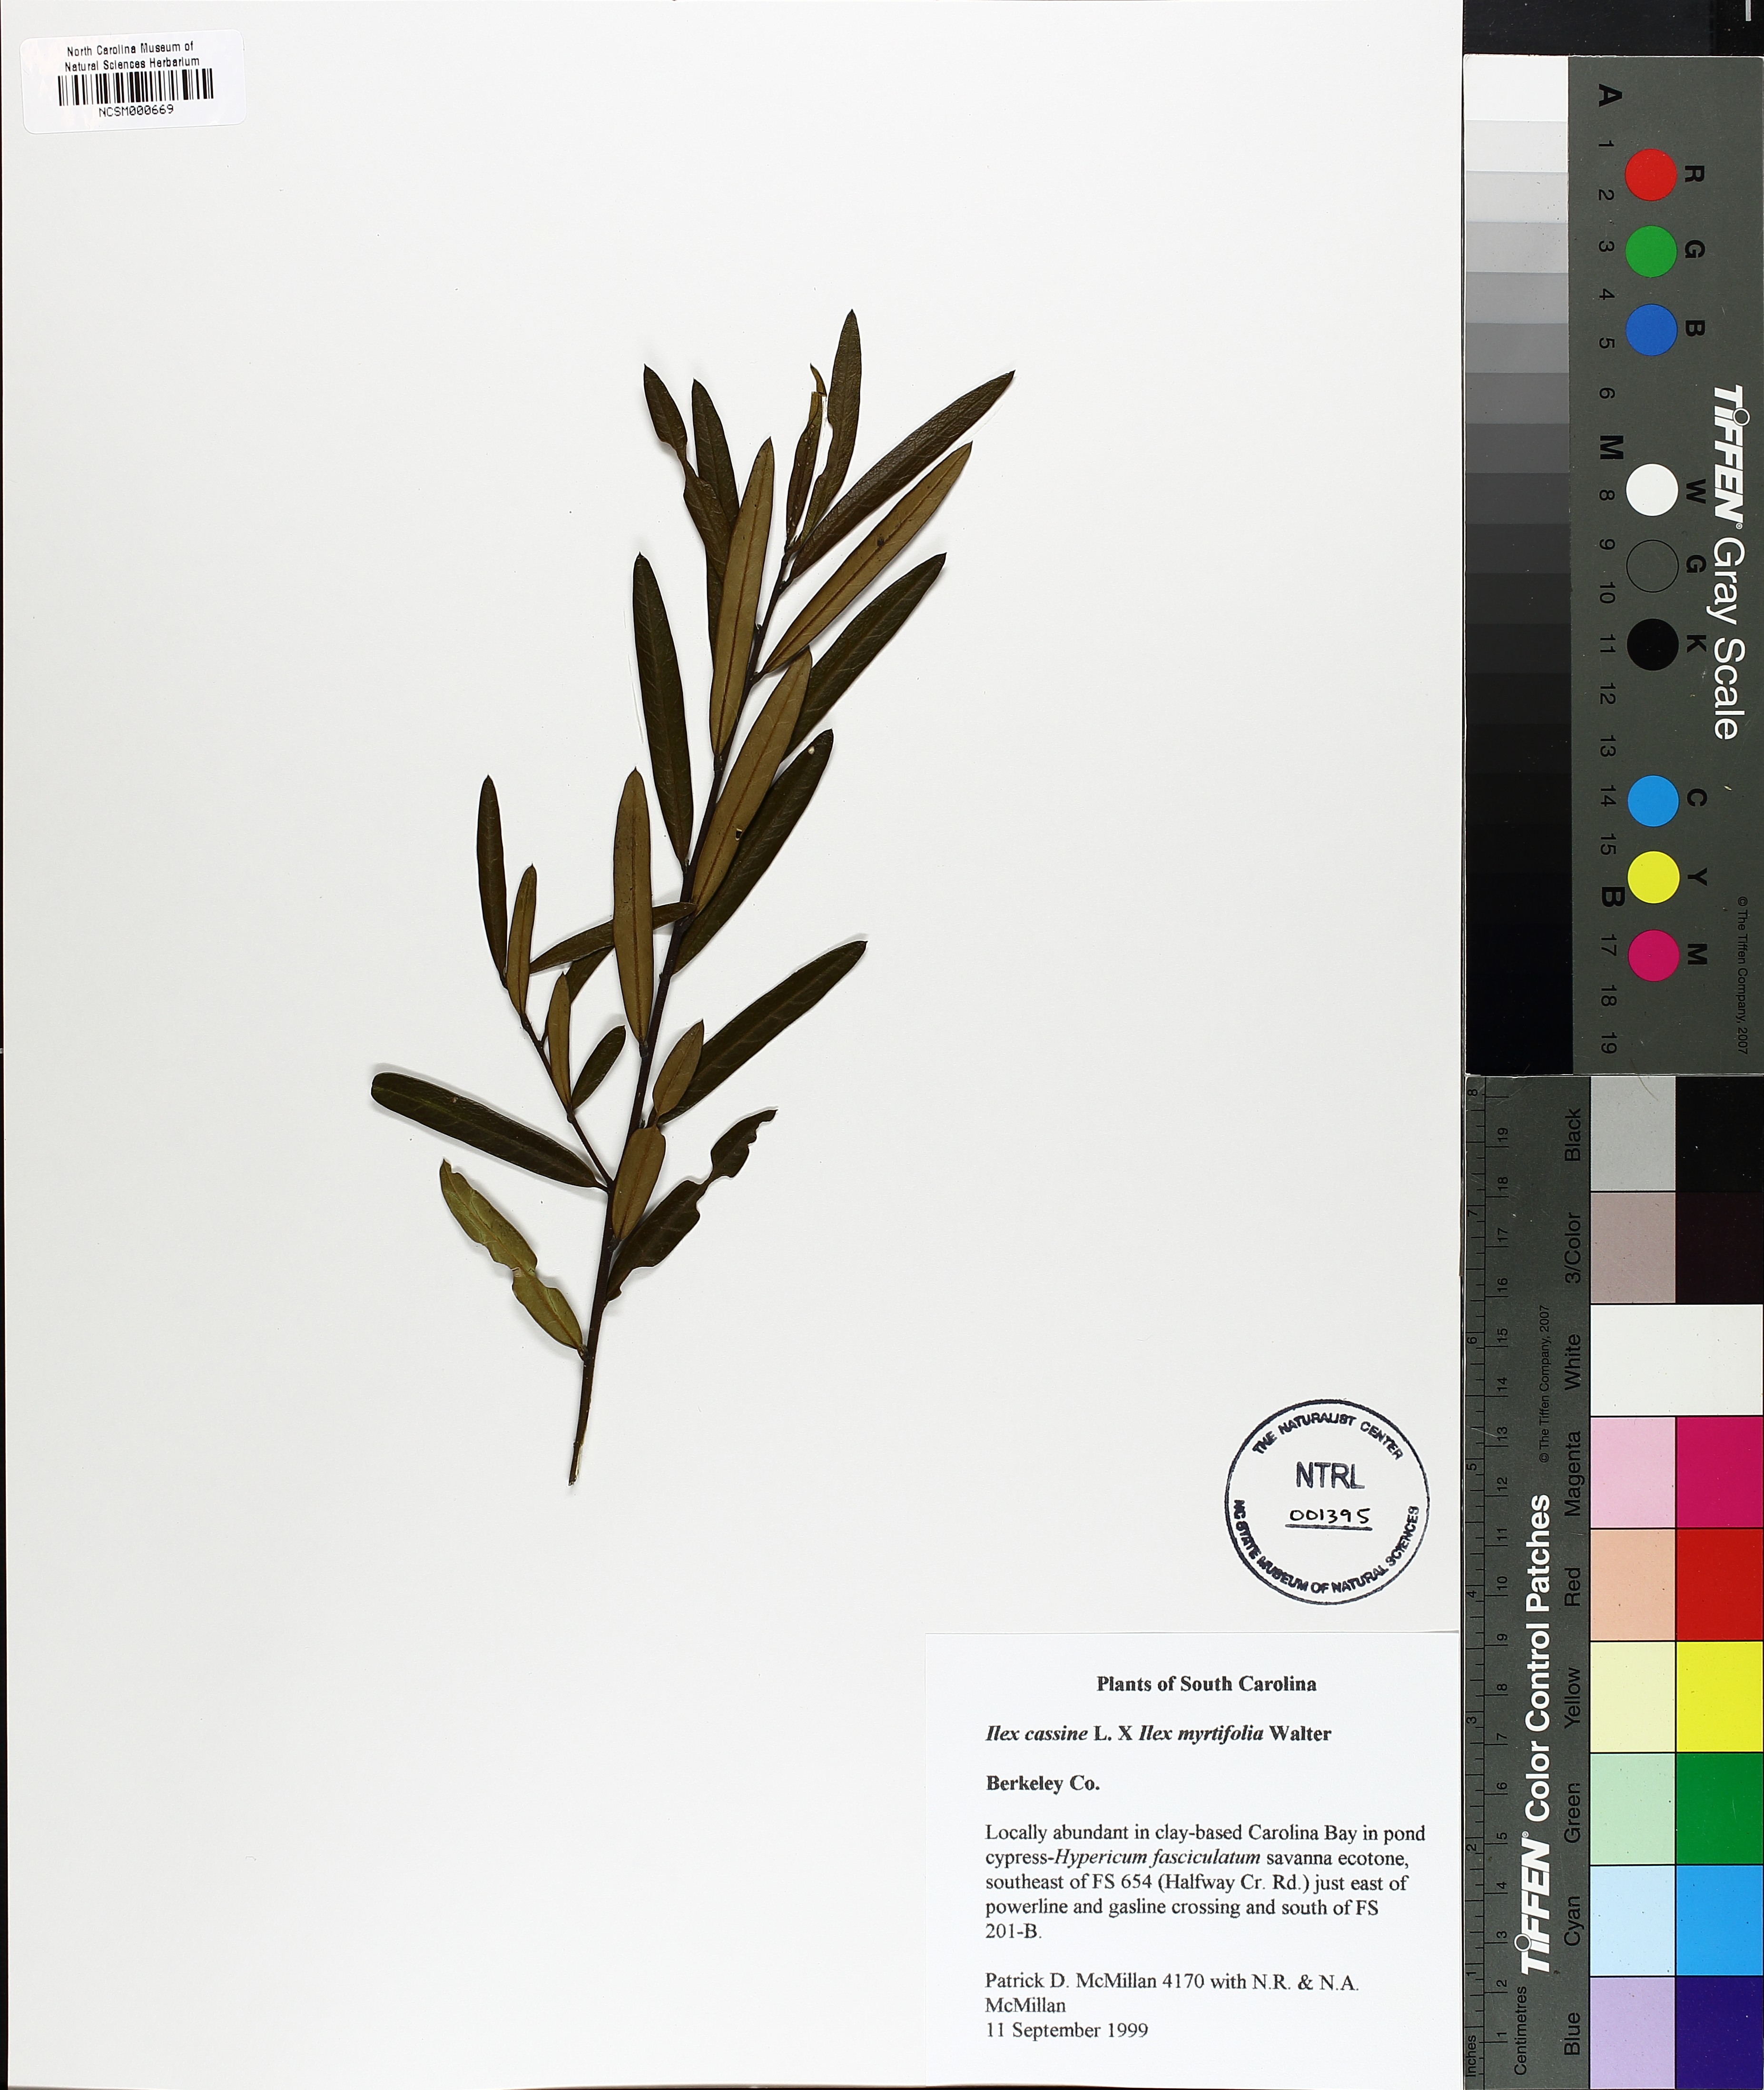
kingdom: Plantae
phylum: Tracheophyta
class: Magnoliopsida
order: Aquifoliales
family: Aquifoliaceae
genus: Ilex
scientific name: Ilex
